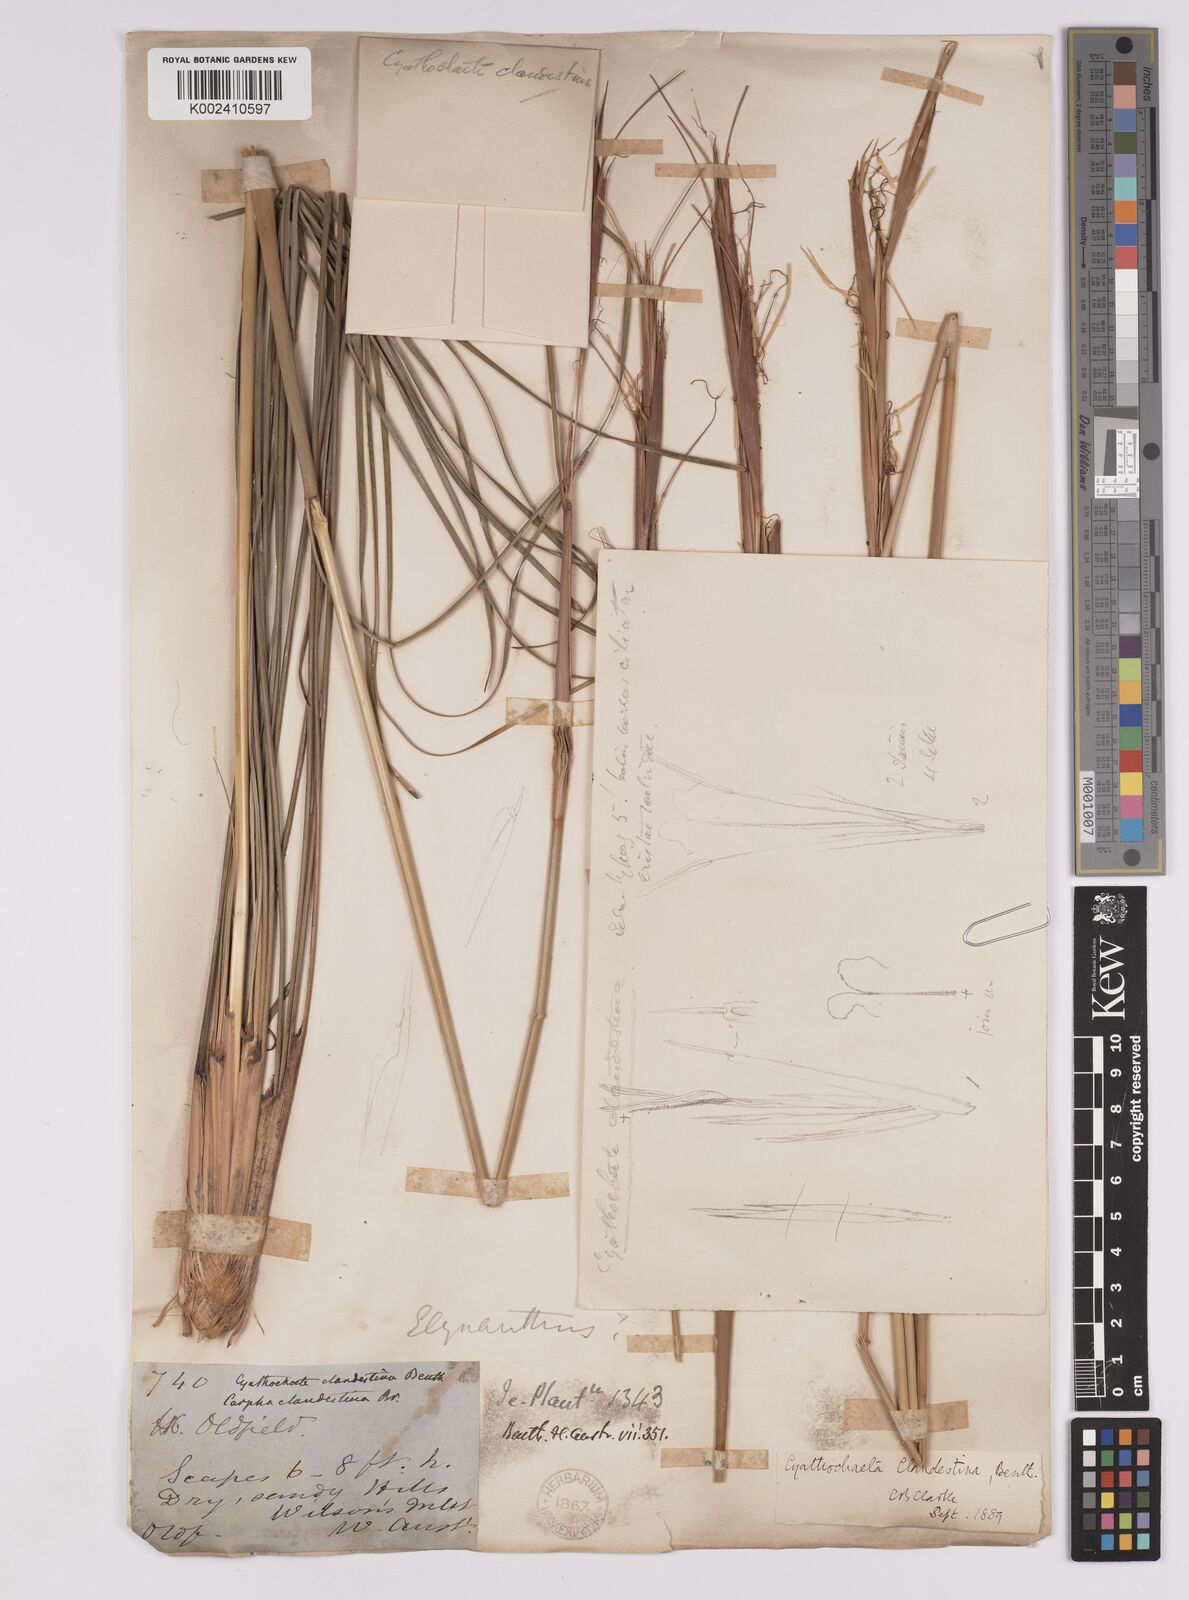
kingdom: Plantae
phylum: Tracheophyta
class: Liliopsida
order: Poales
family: Cyperaceae
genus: Cyathochaeta
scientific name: Cyathochaeta clandestina
